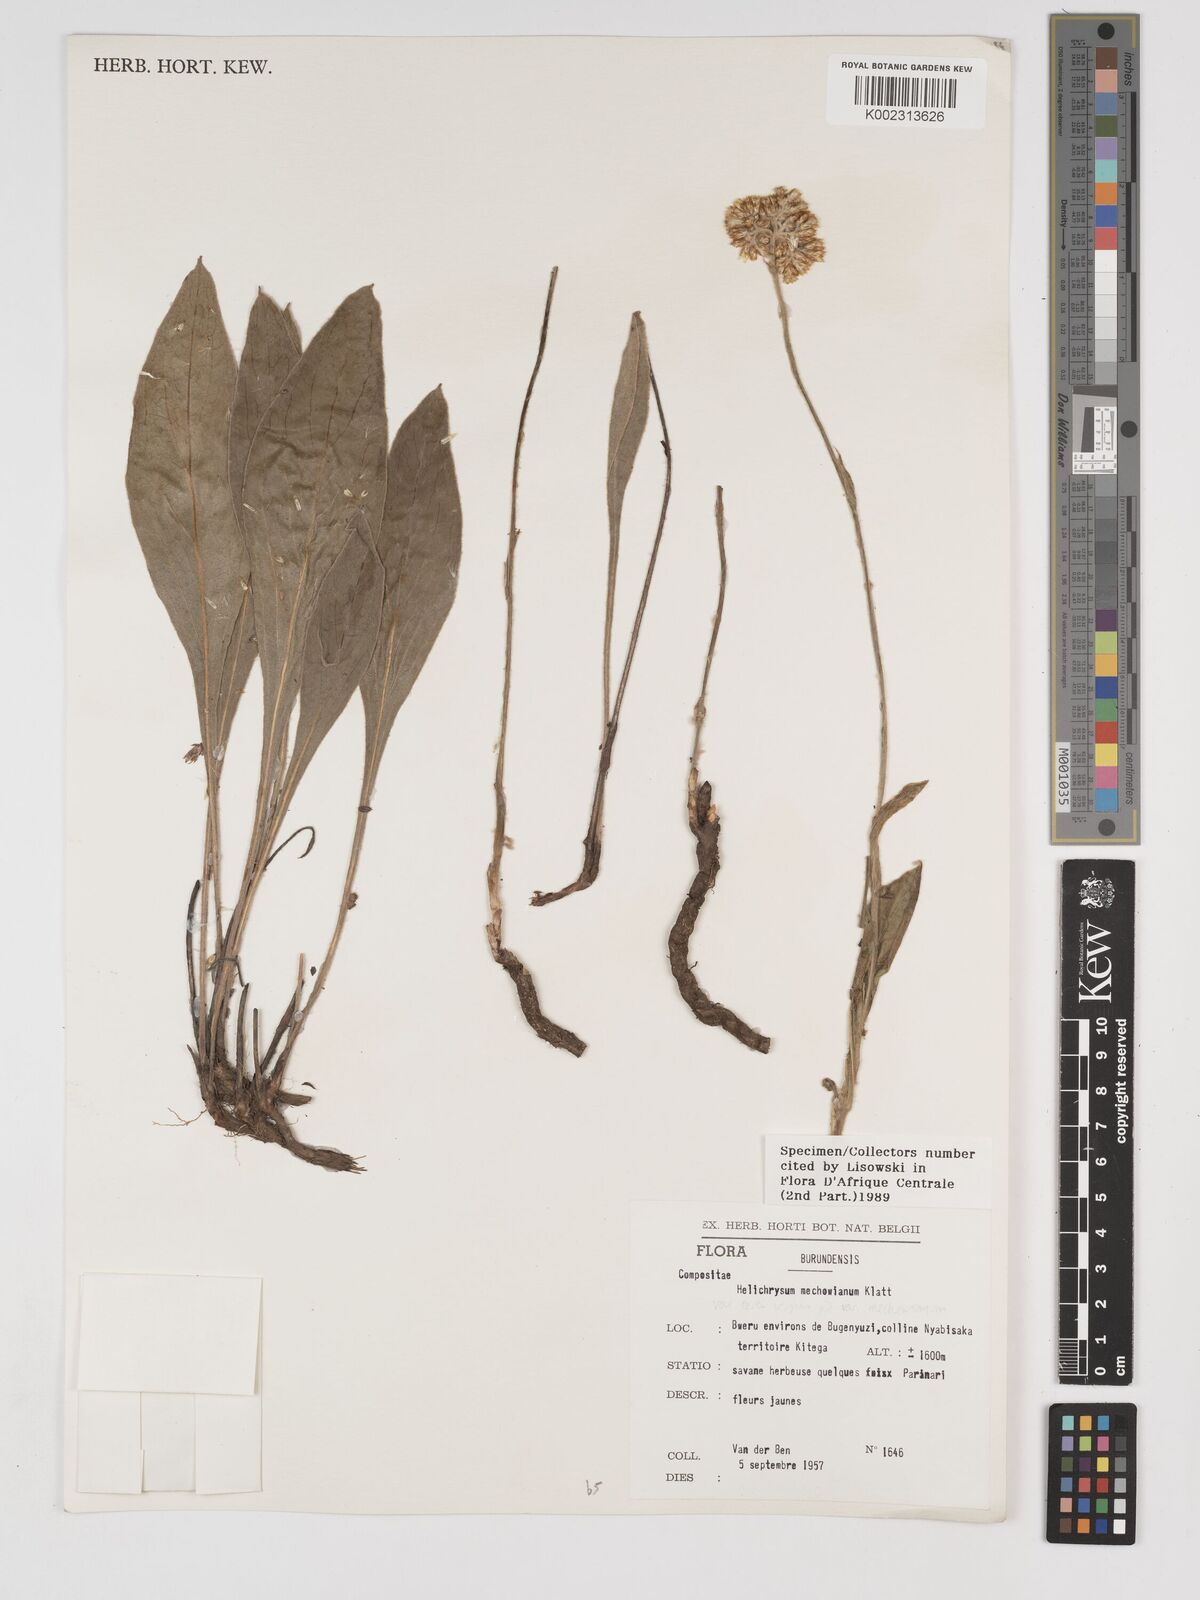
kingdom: Plantae
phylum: Tracheophyta
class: Magnoliopsida
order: Asterales
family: Asteraceae
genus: Helichrysum
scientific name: Helichrysum mechowianum
